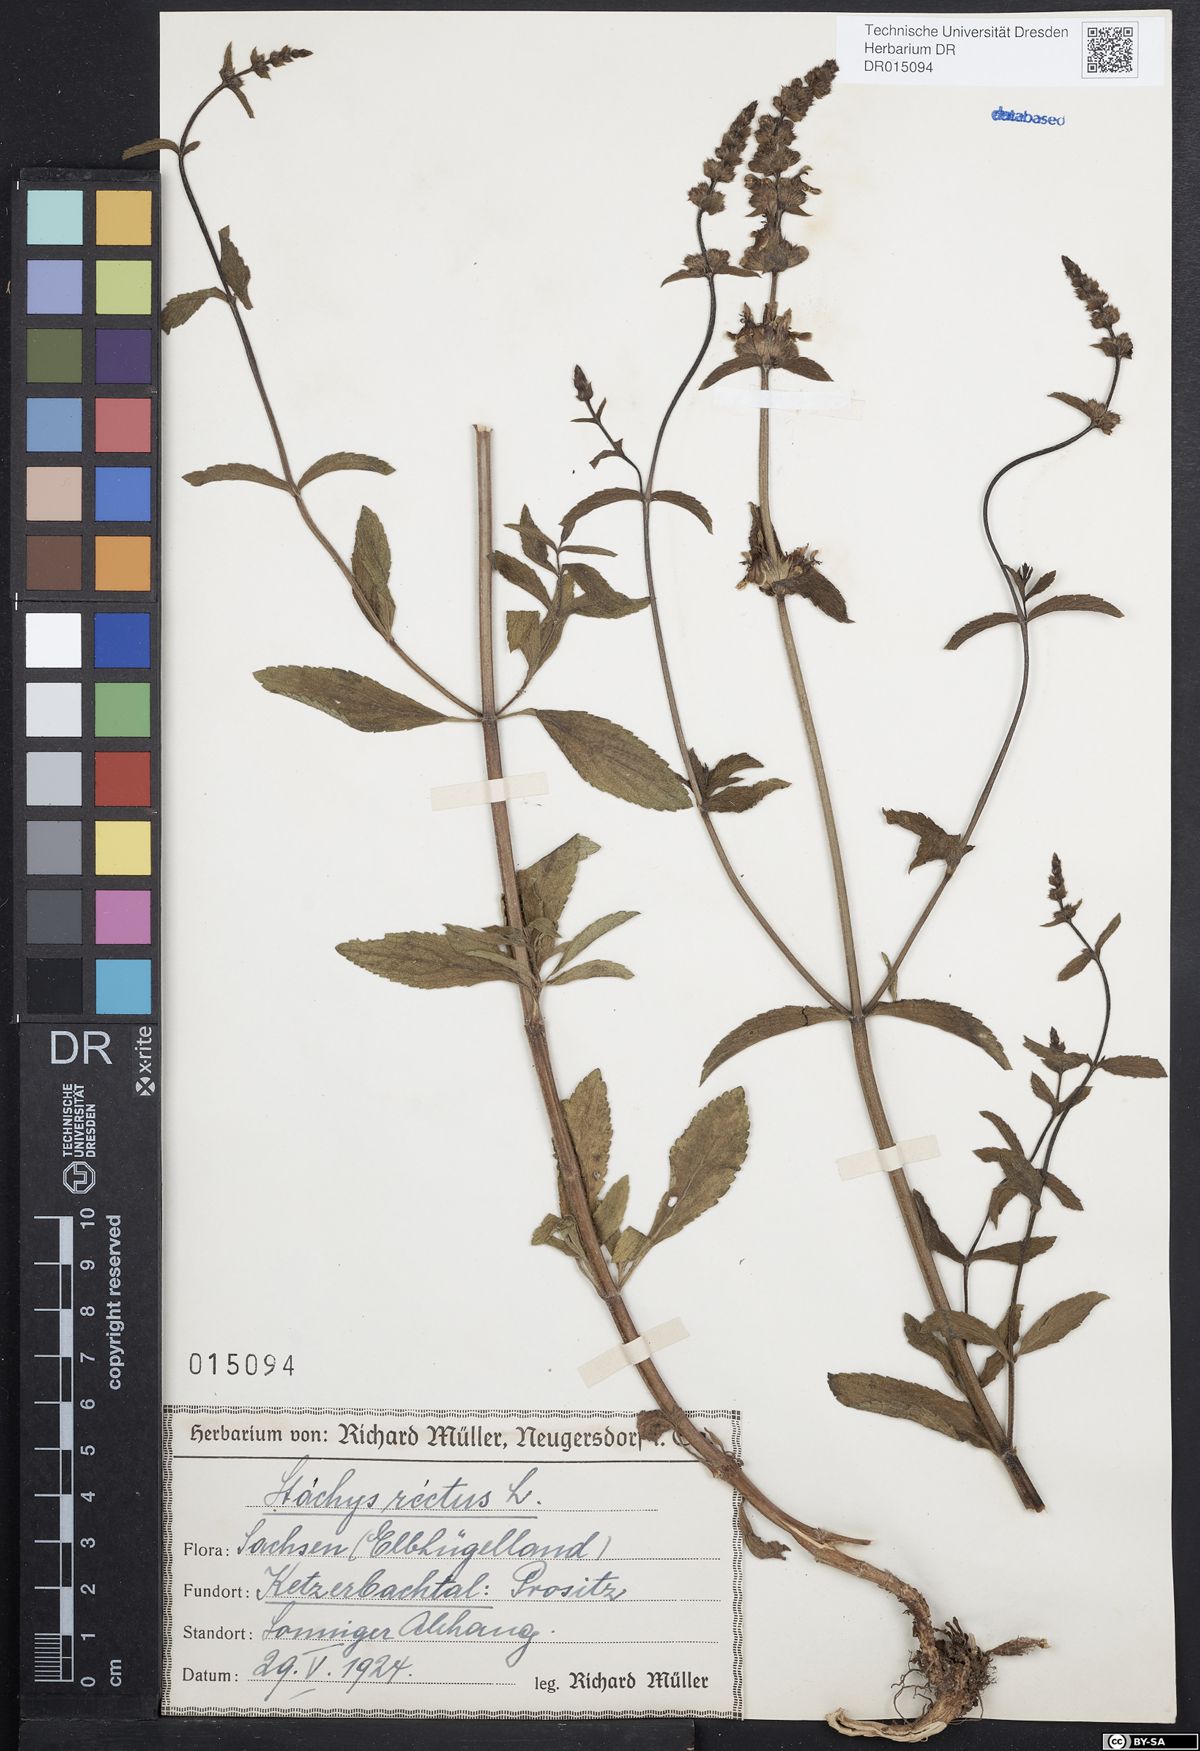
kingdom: Plantae
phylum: Tracheophyta
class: Magnoliopsida
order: Lamiales
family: Lamiaceae
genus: Stachys
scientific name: Stachys recta
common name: Perennial yellow-woundwort
